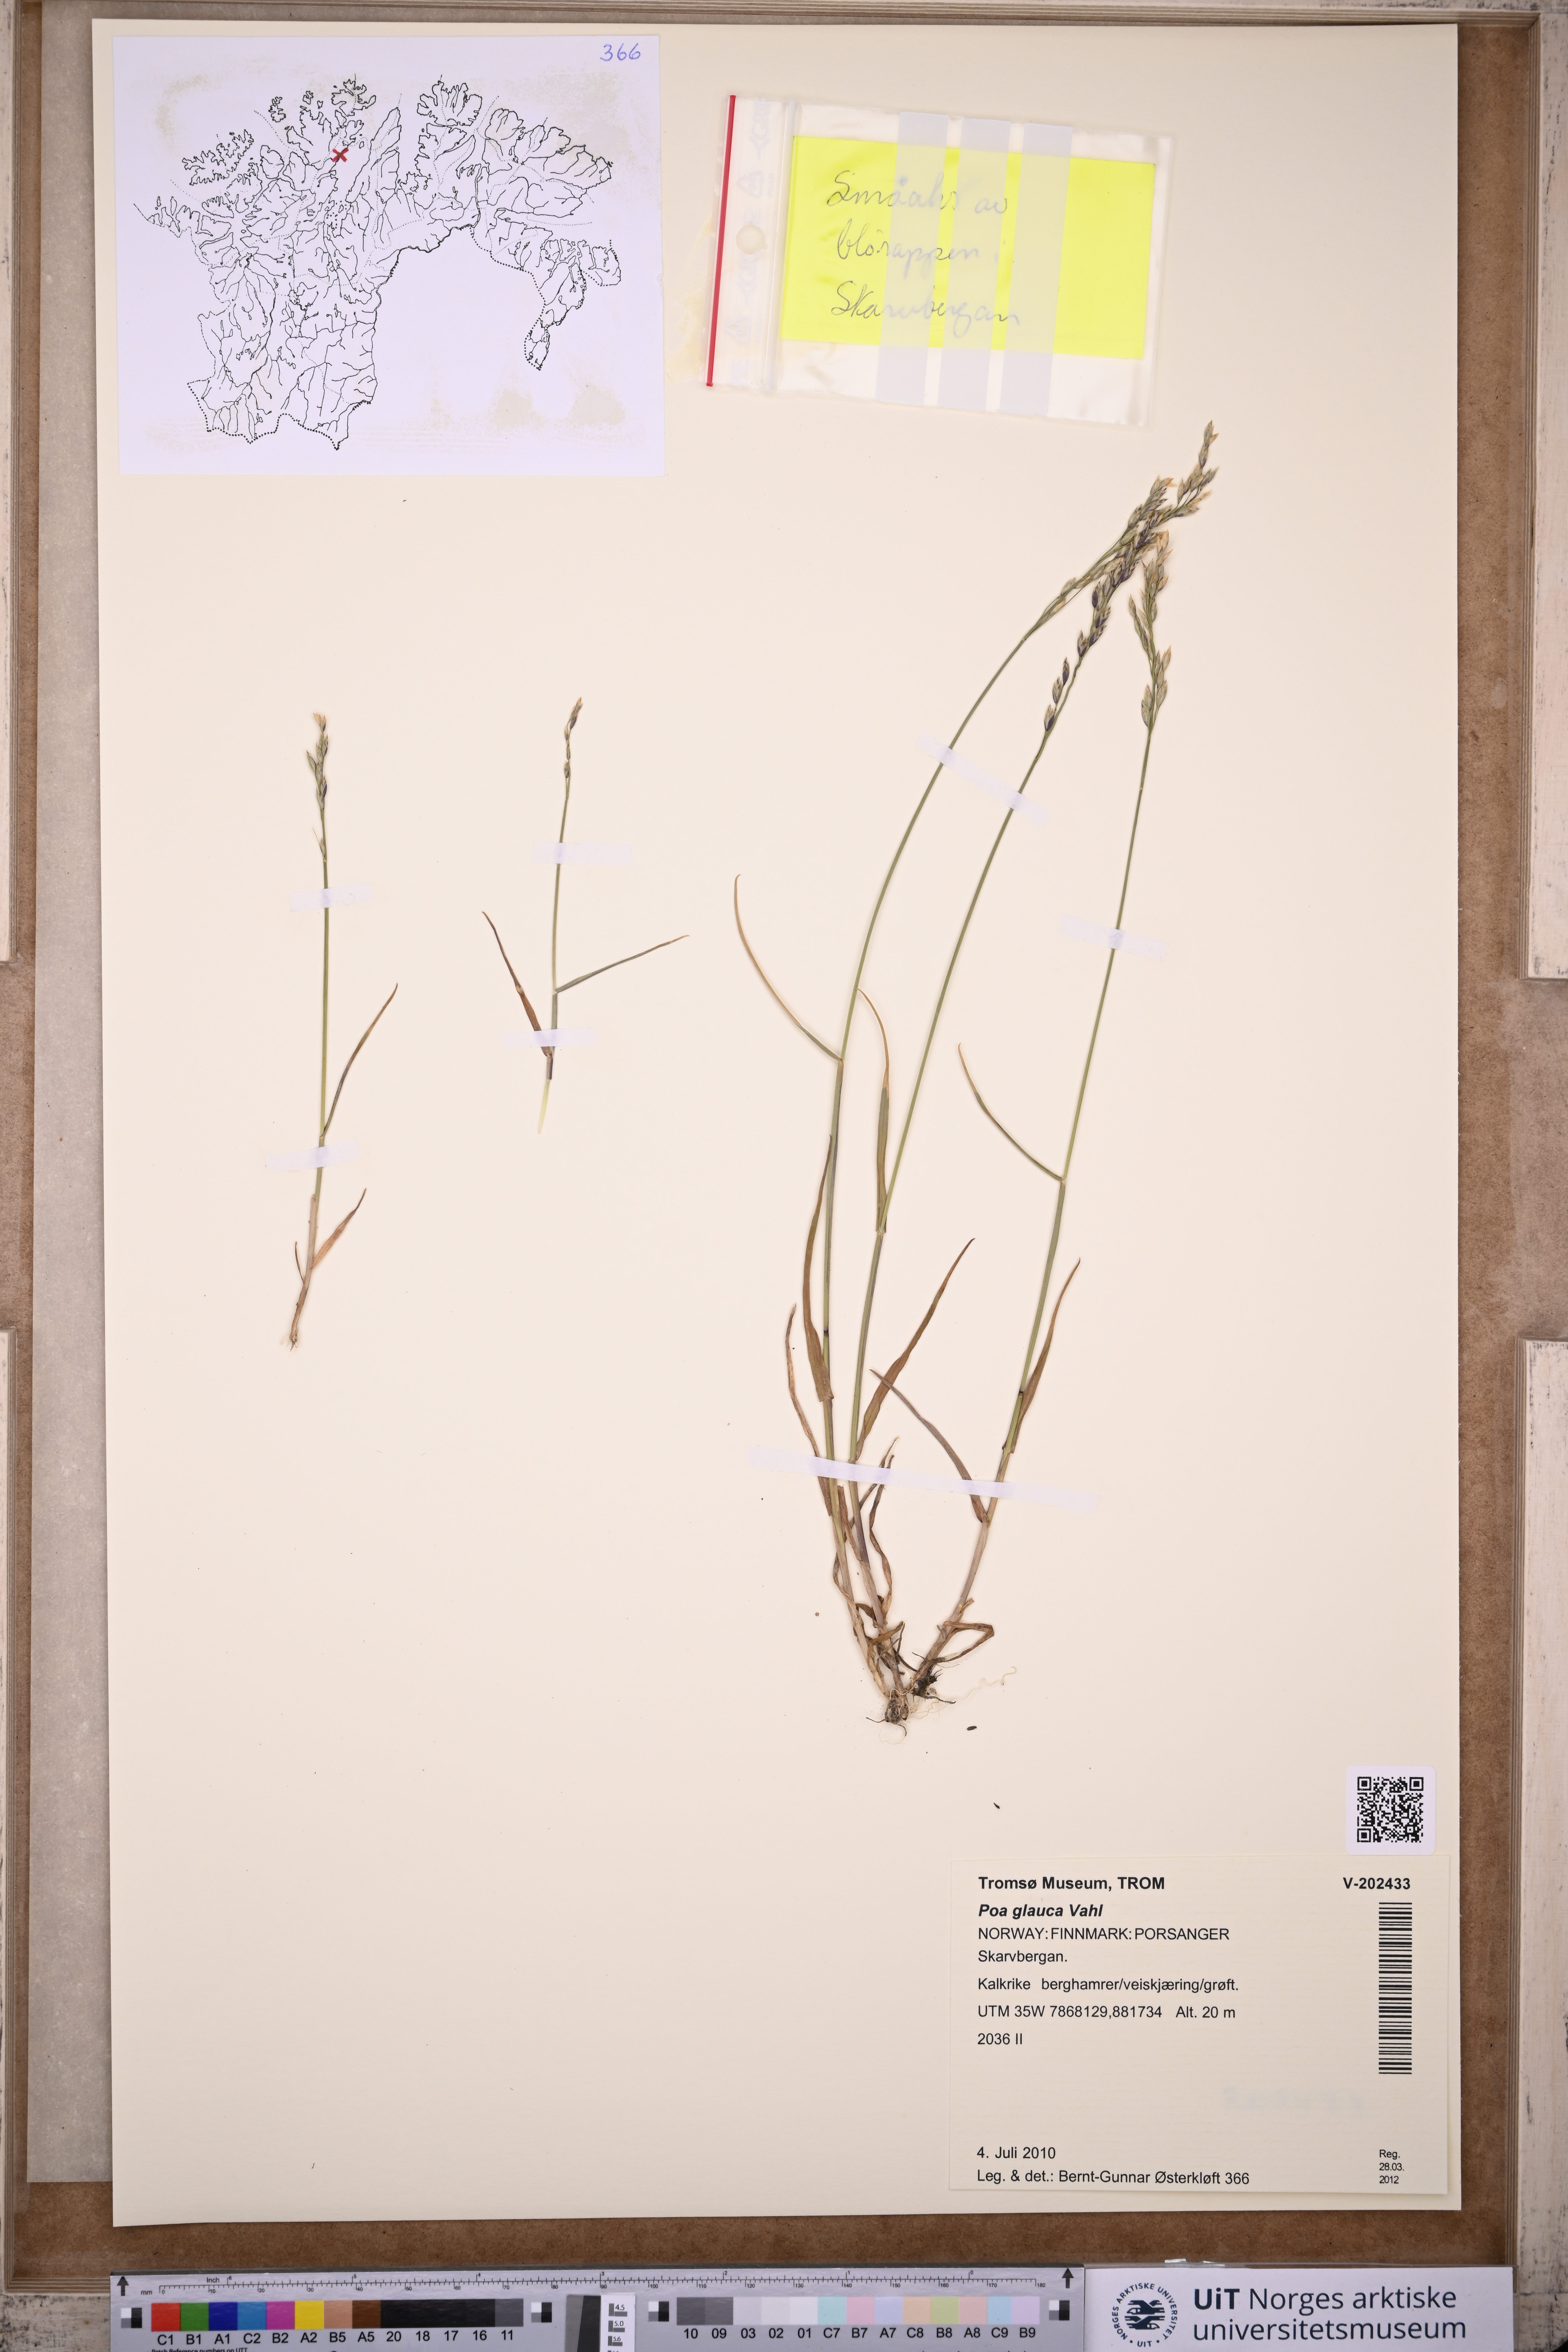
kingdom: Plantae
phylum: Tracheophyta
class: Liliopsida
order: Poales
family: Poaceae
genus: Poa
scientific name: Poa glauca
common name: Glaucous bluegrass
